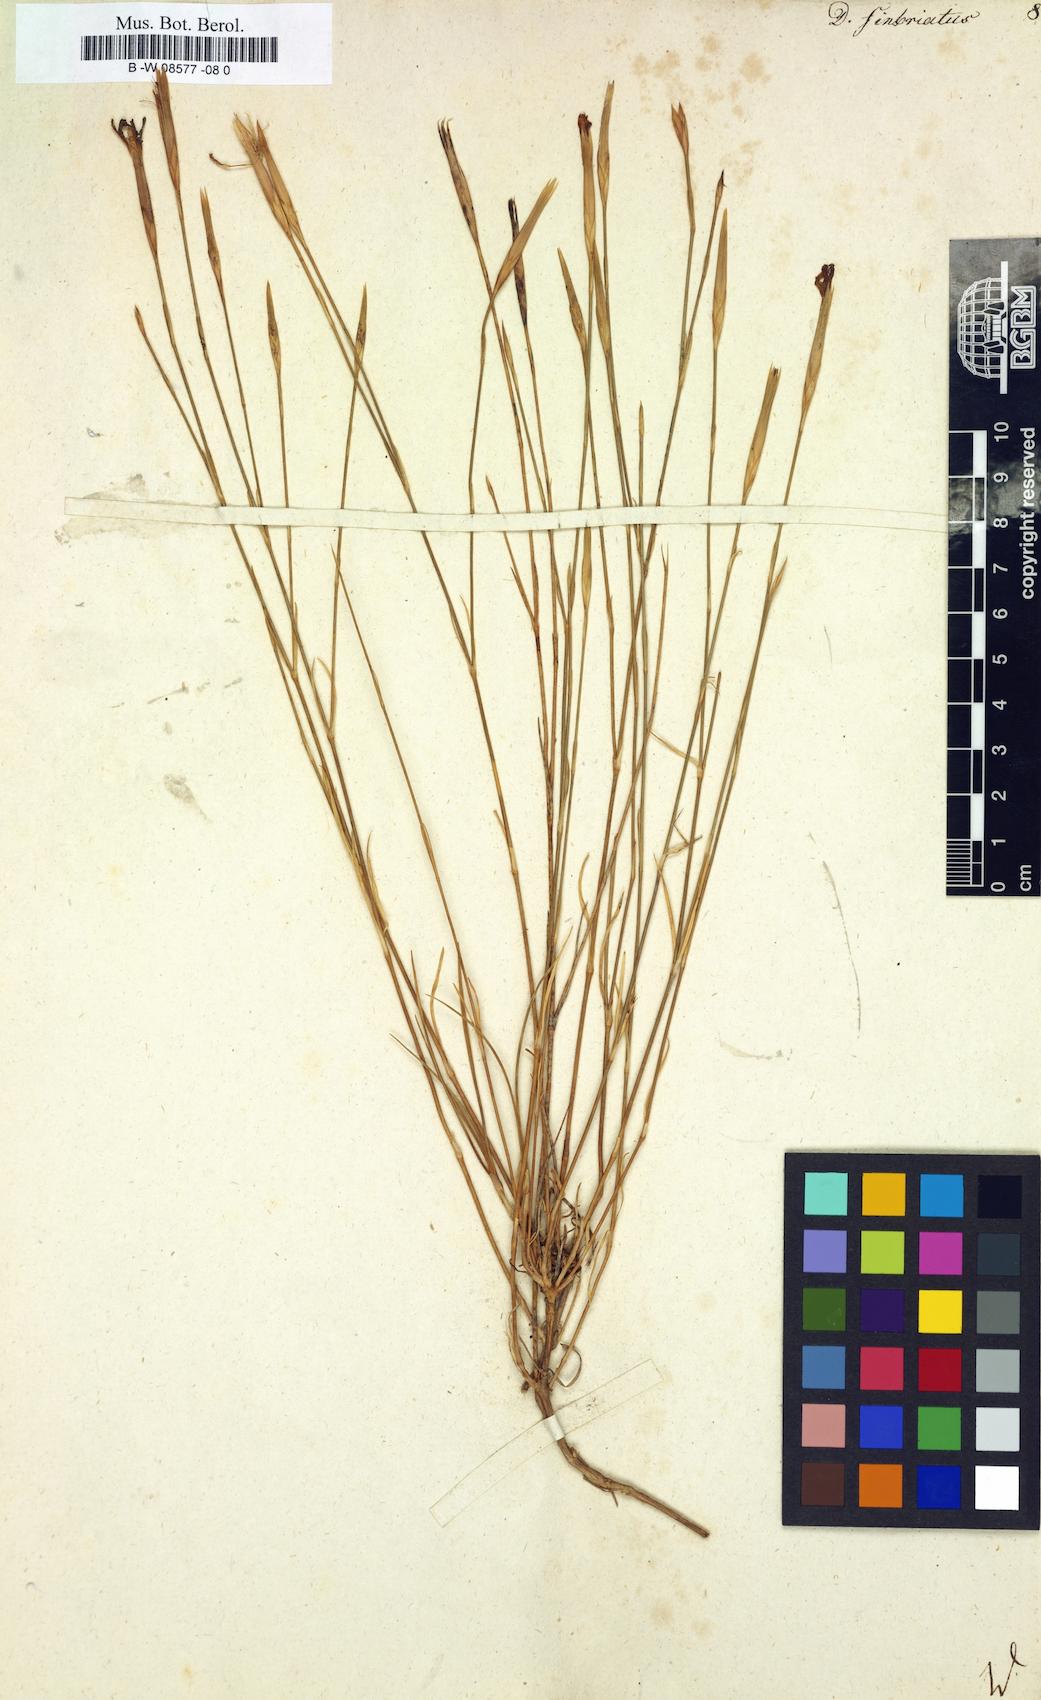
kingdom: Plantae
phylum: Tracheophyta
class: Magnoliopsida
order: Caryophyllales
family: Caryophyllaceae
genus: Dianthus
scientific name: Dianthus
